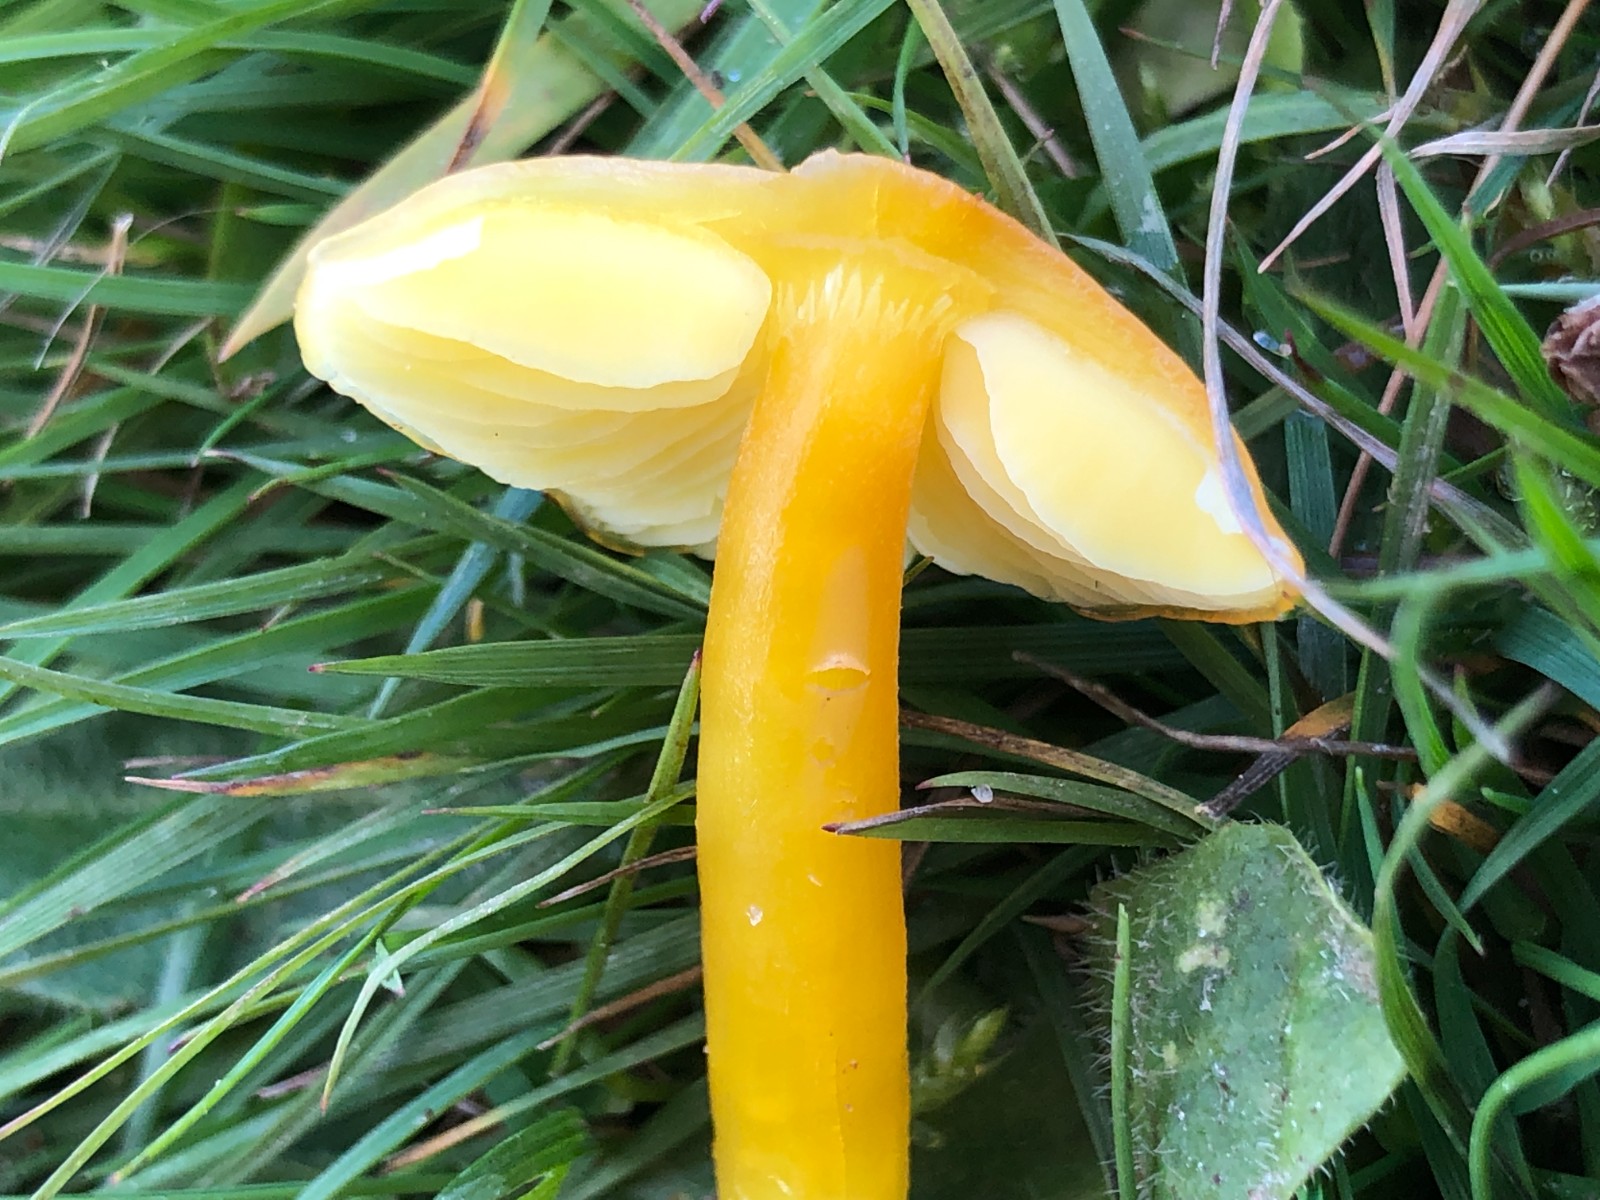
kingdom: Fungi
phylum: Basidiomycota
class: Agaricomycetes
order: Agaricales
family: Hygrophoraceae
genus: Hygrocybe
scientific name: Hygrocybe chlorophana
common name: gul vokshat
